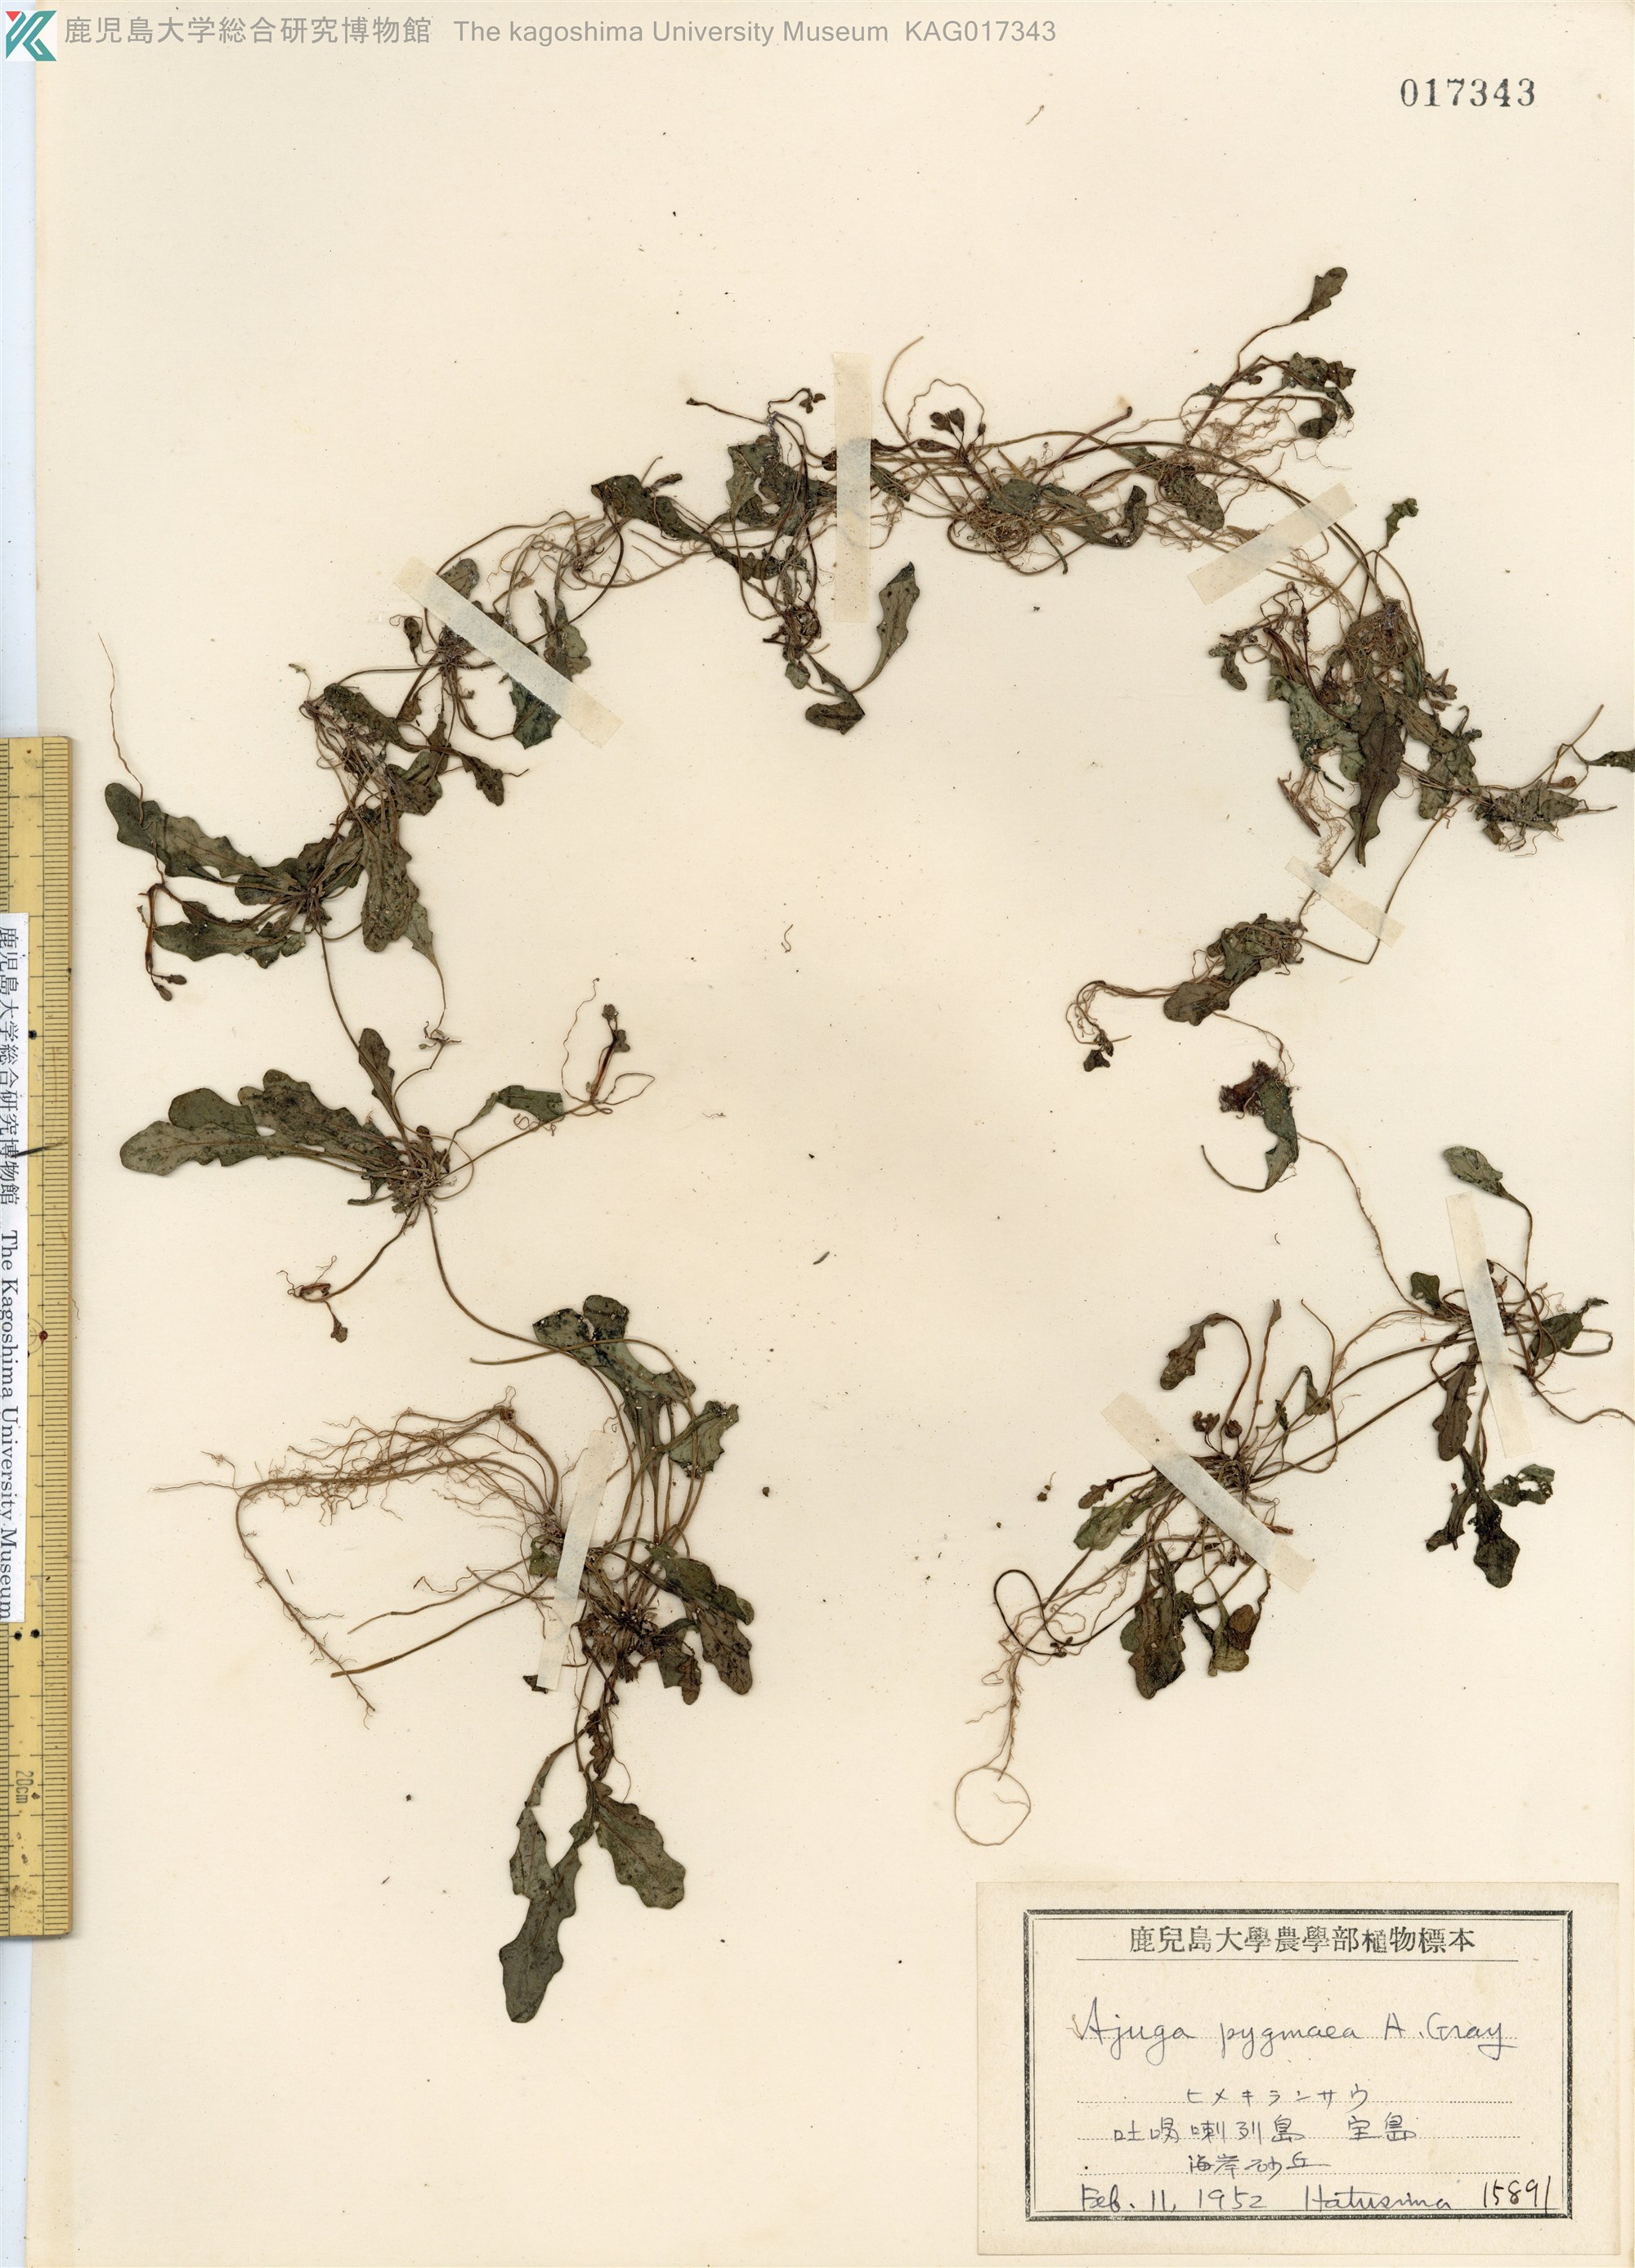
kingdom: Plantae
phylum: Tracheophyta
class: Magnoliopsida
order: Lamiales
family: Lamiaceae
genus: Ajuga
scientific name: Ajuga pygmaea
